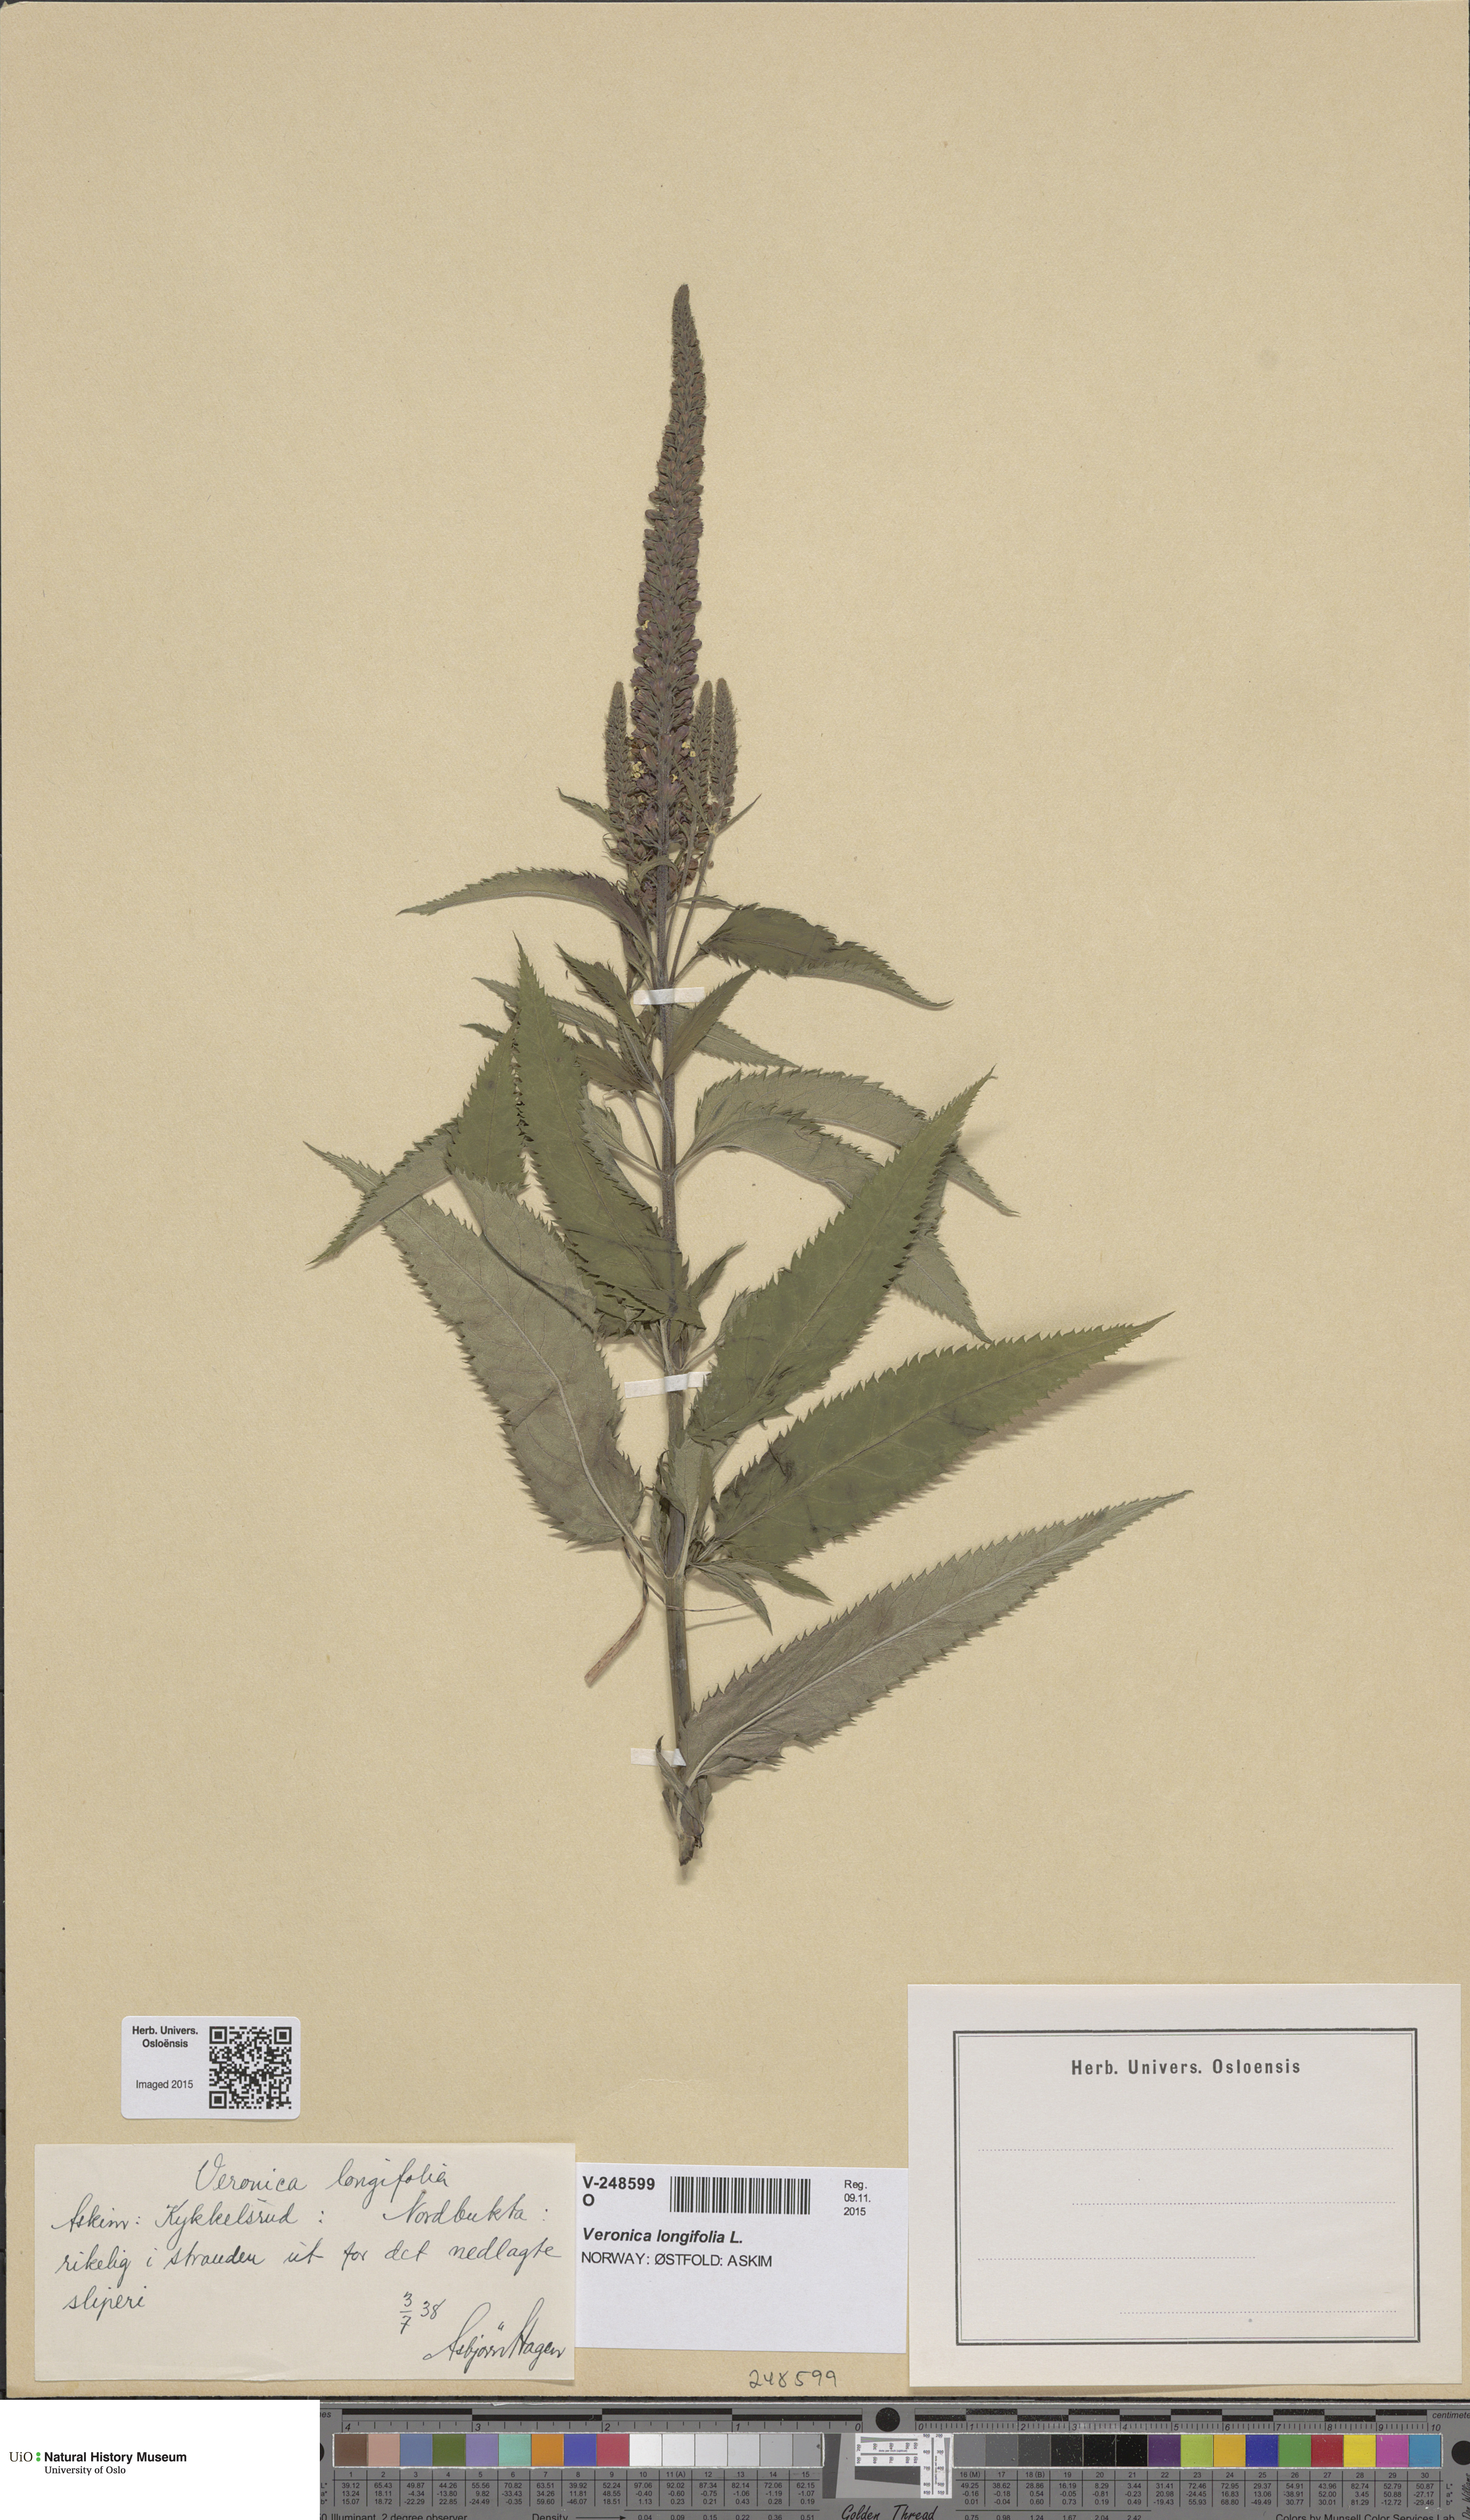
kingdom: Plantae
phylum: Tracheophyta
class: Magnoliopsida
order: Lamiales
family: Plantaginaceae
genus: Veronica
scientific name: Veronica longifolia
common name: Garden speedwell
